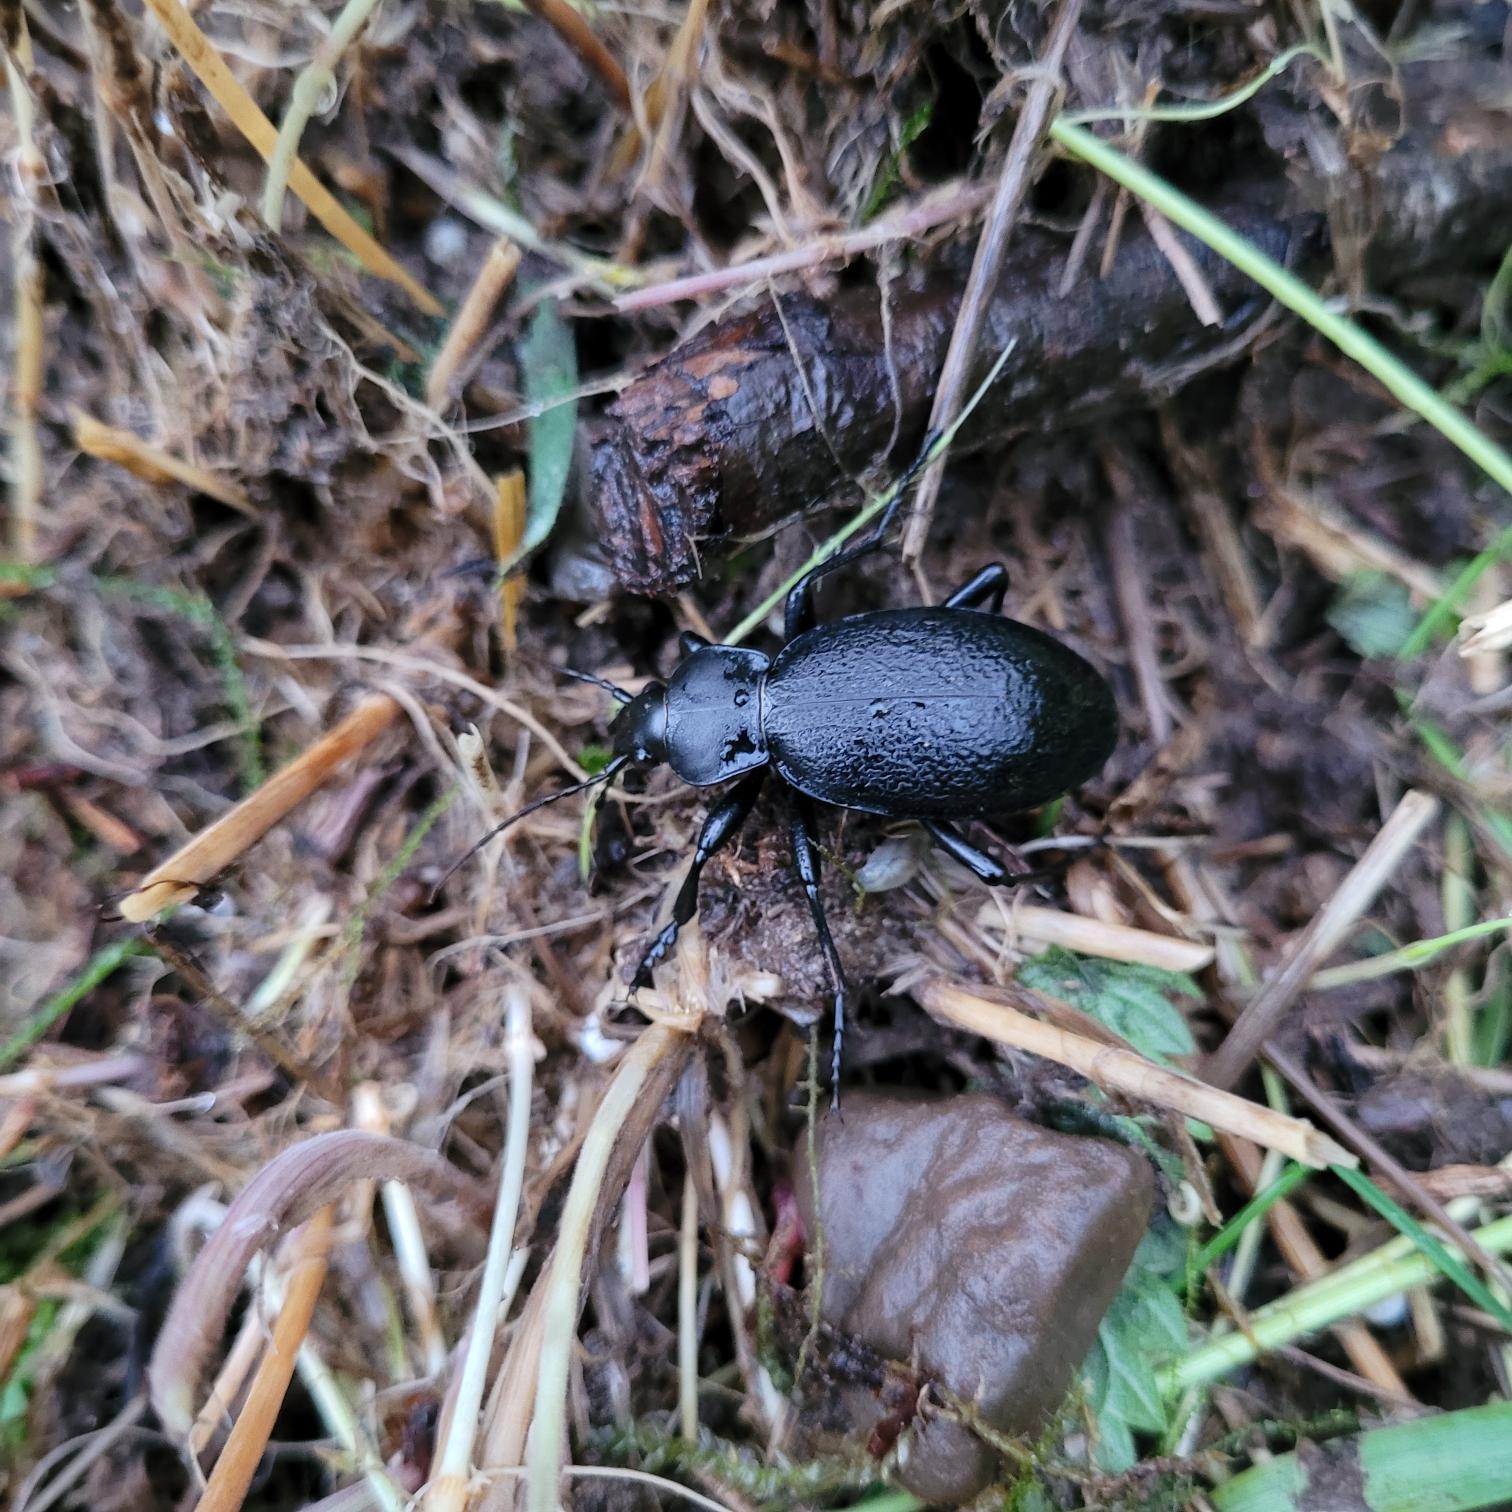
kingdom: Animalia
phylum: Arthropoda
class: Insecta
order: Coleoptera
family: Carabidae
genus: Carabus
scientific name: Carabus coriaceus
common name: Læderløber
